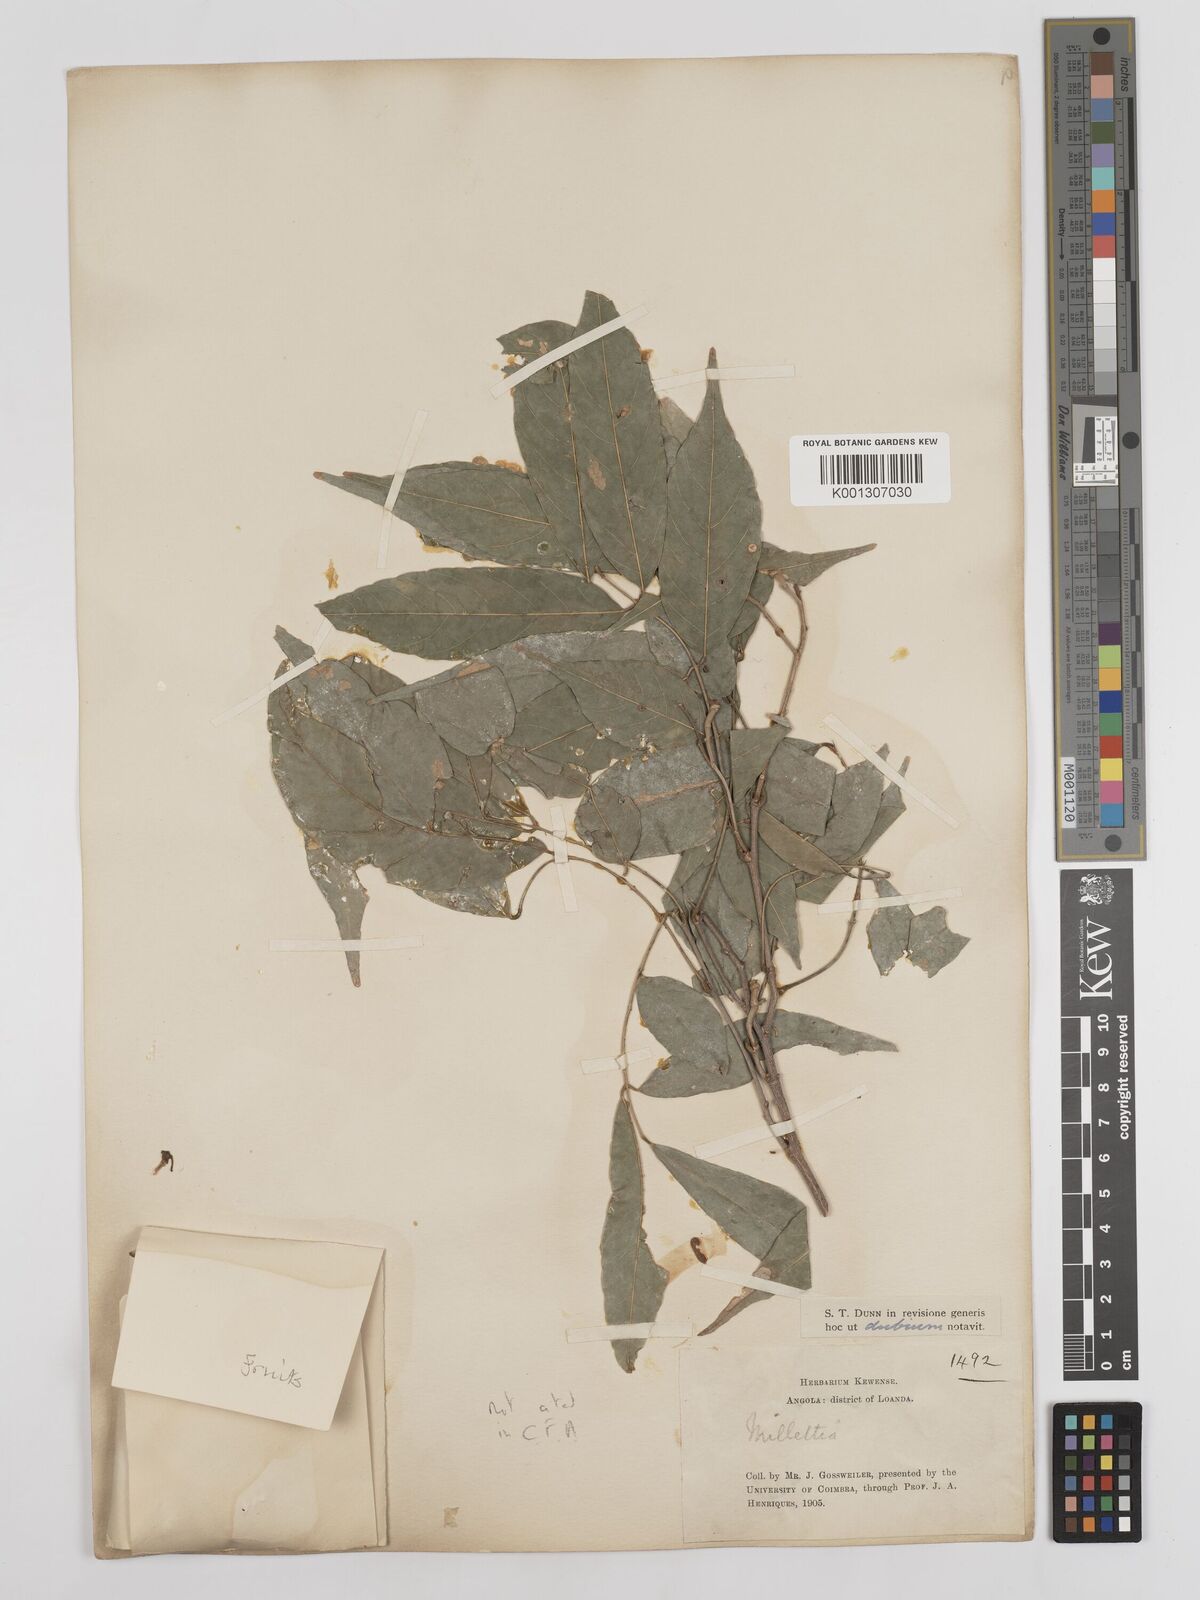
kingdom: Plantae
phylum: Tracheophyta
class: Magnoliopsida
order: Fabales
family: Fabaceae
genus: Millettia
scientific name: Millettia
